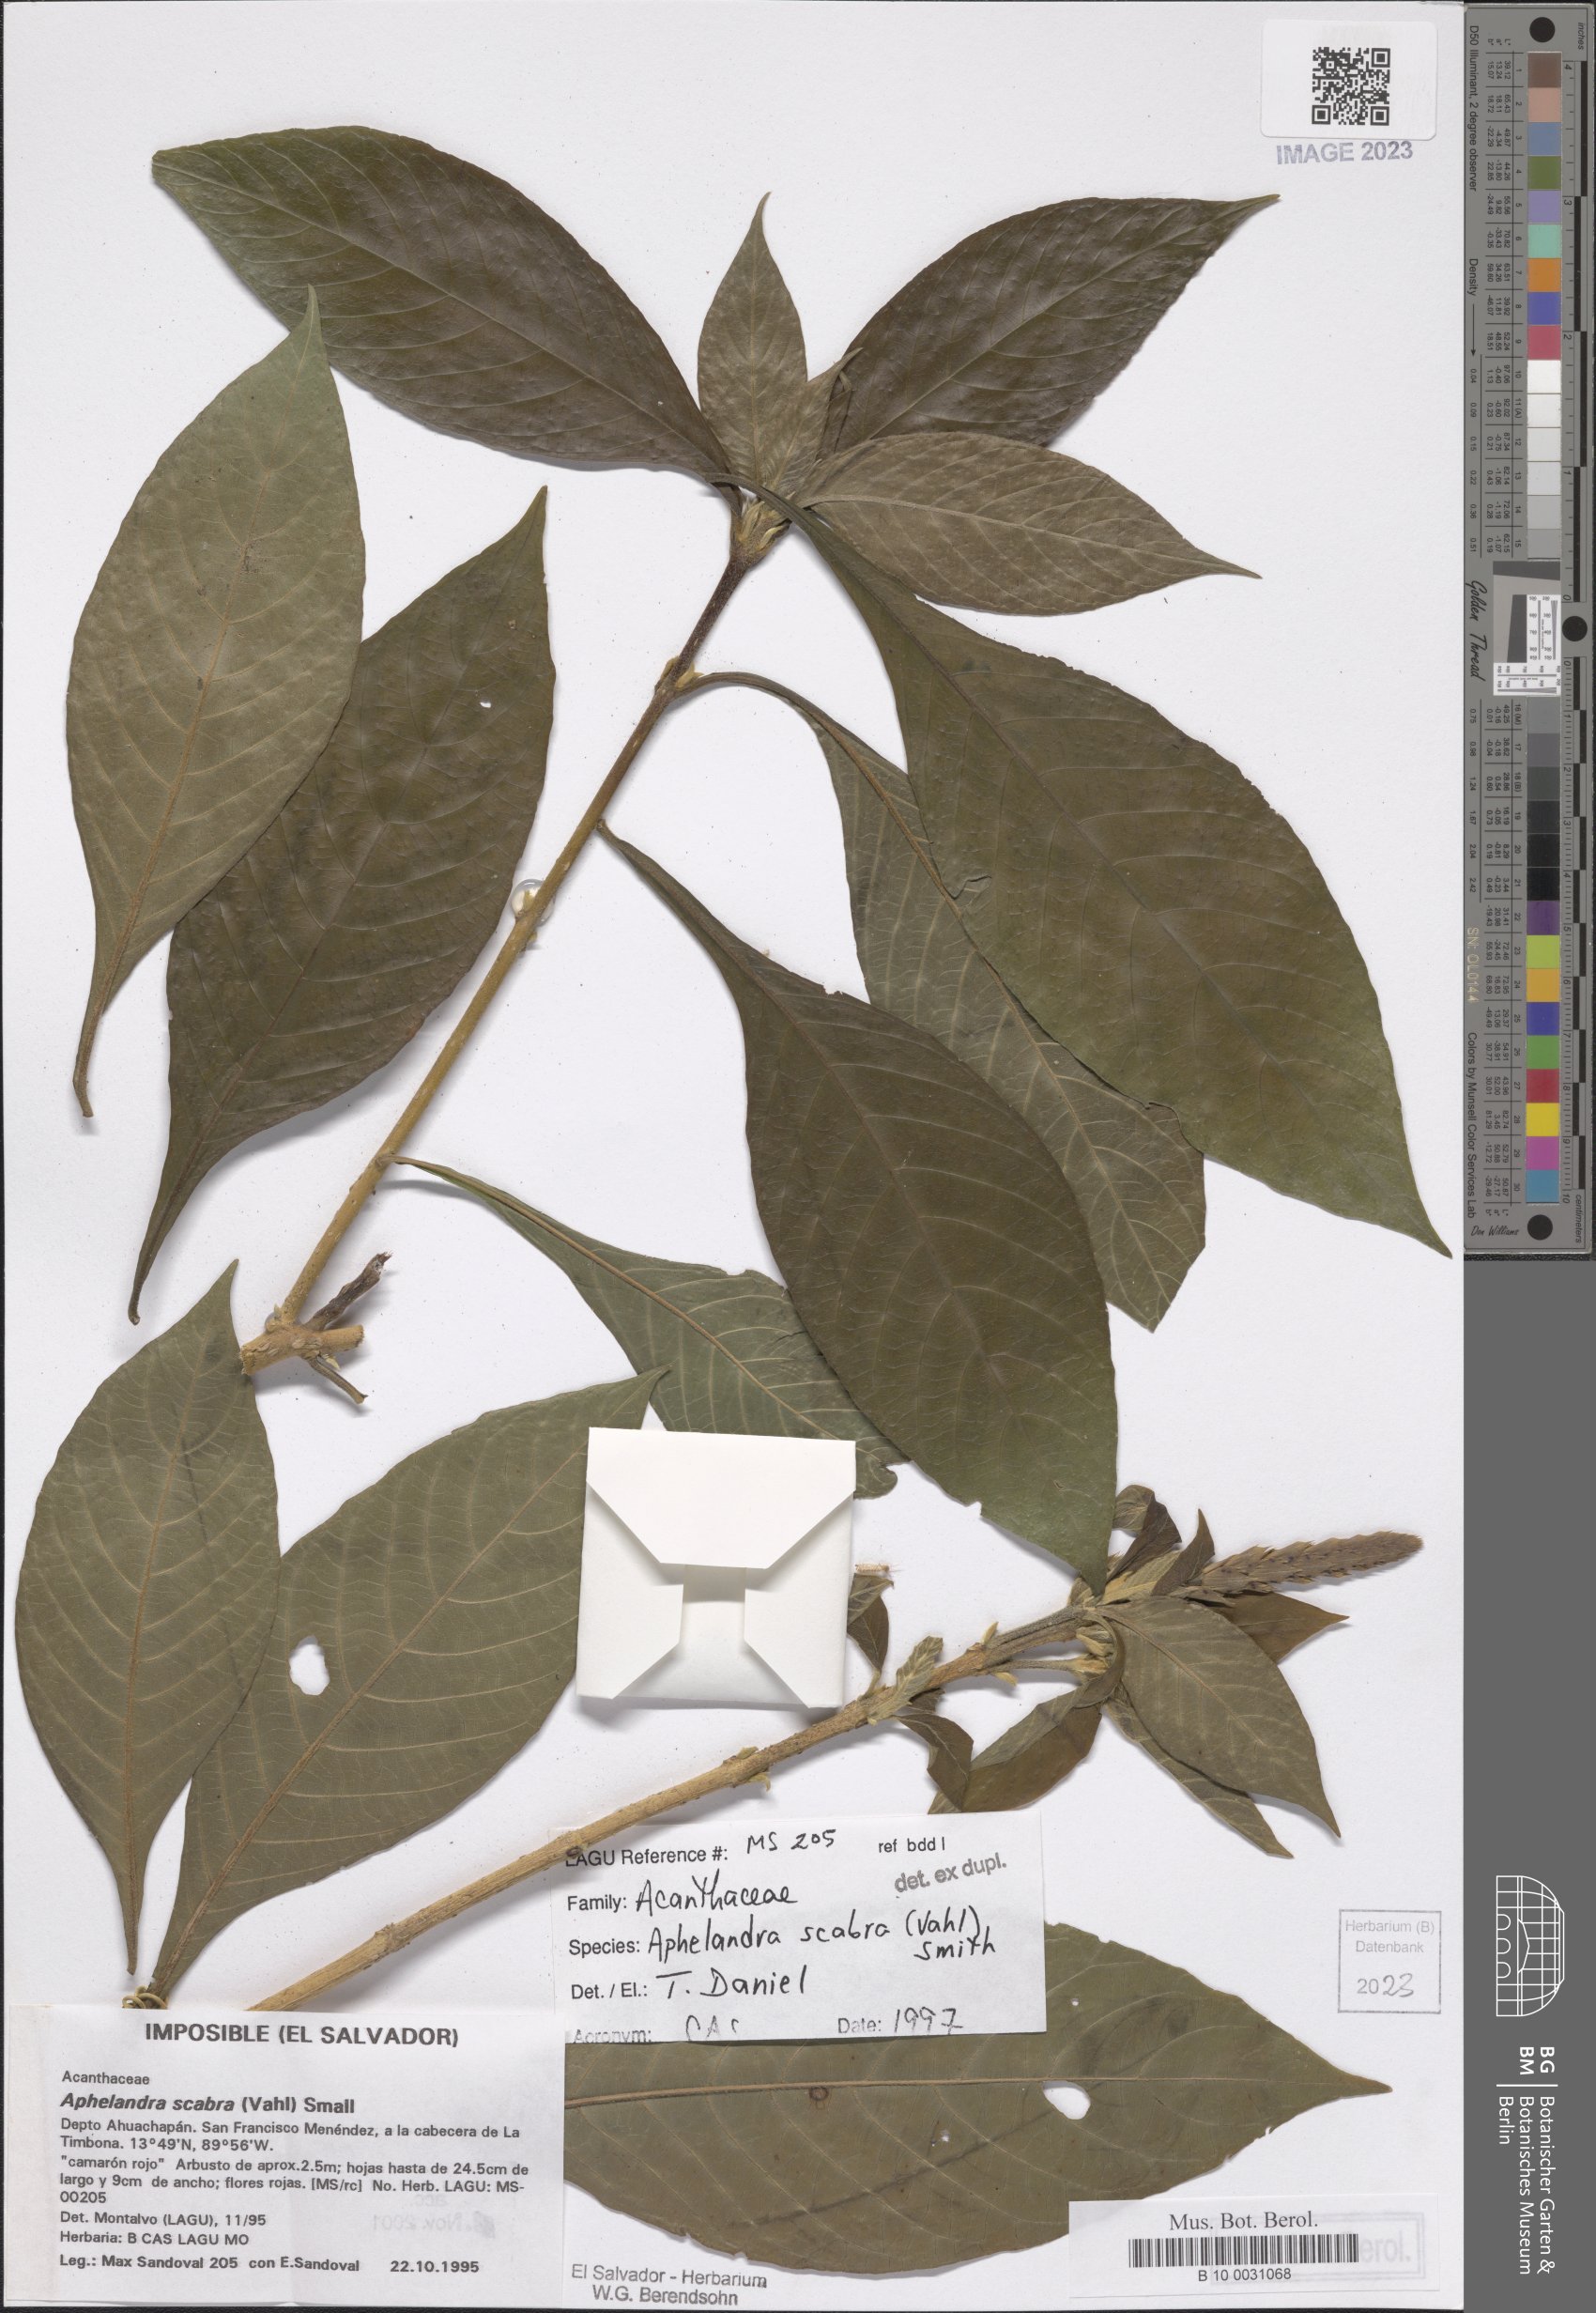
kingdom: Plantae
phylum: Tracheophyta
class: Magnoliopsida
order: Lamiales
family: Acanthaceae
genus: Aphelandra
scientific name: Aphelandra scabra
